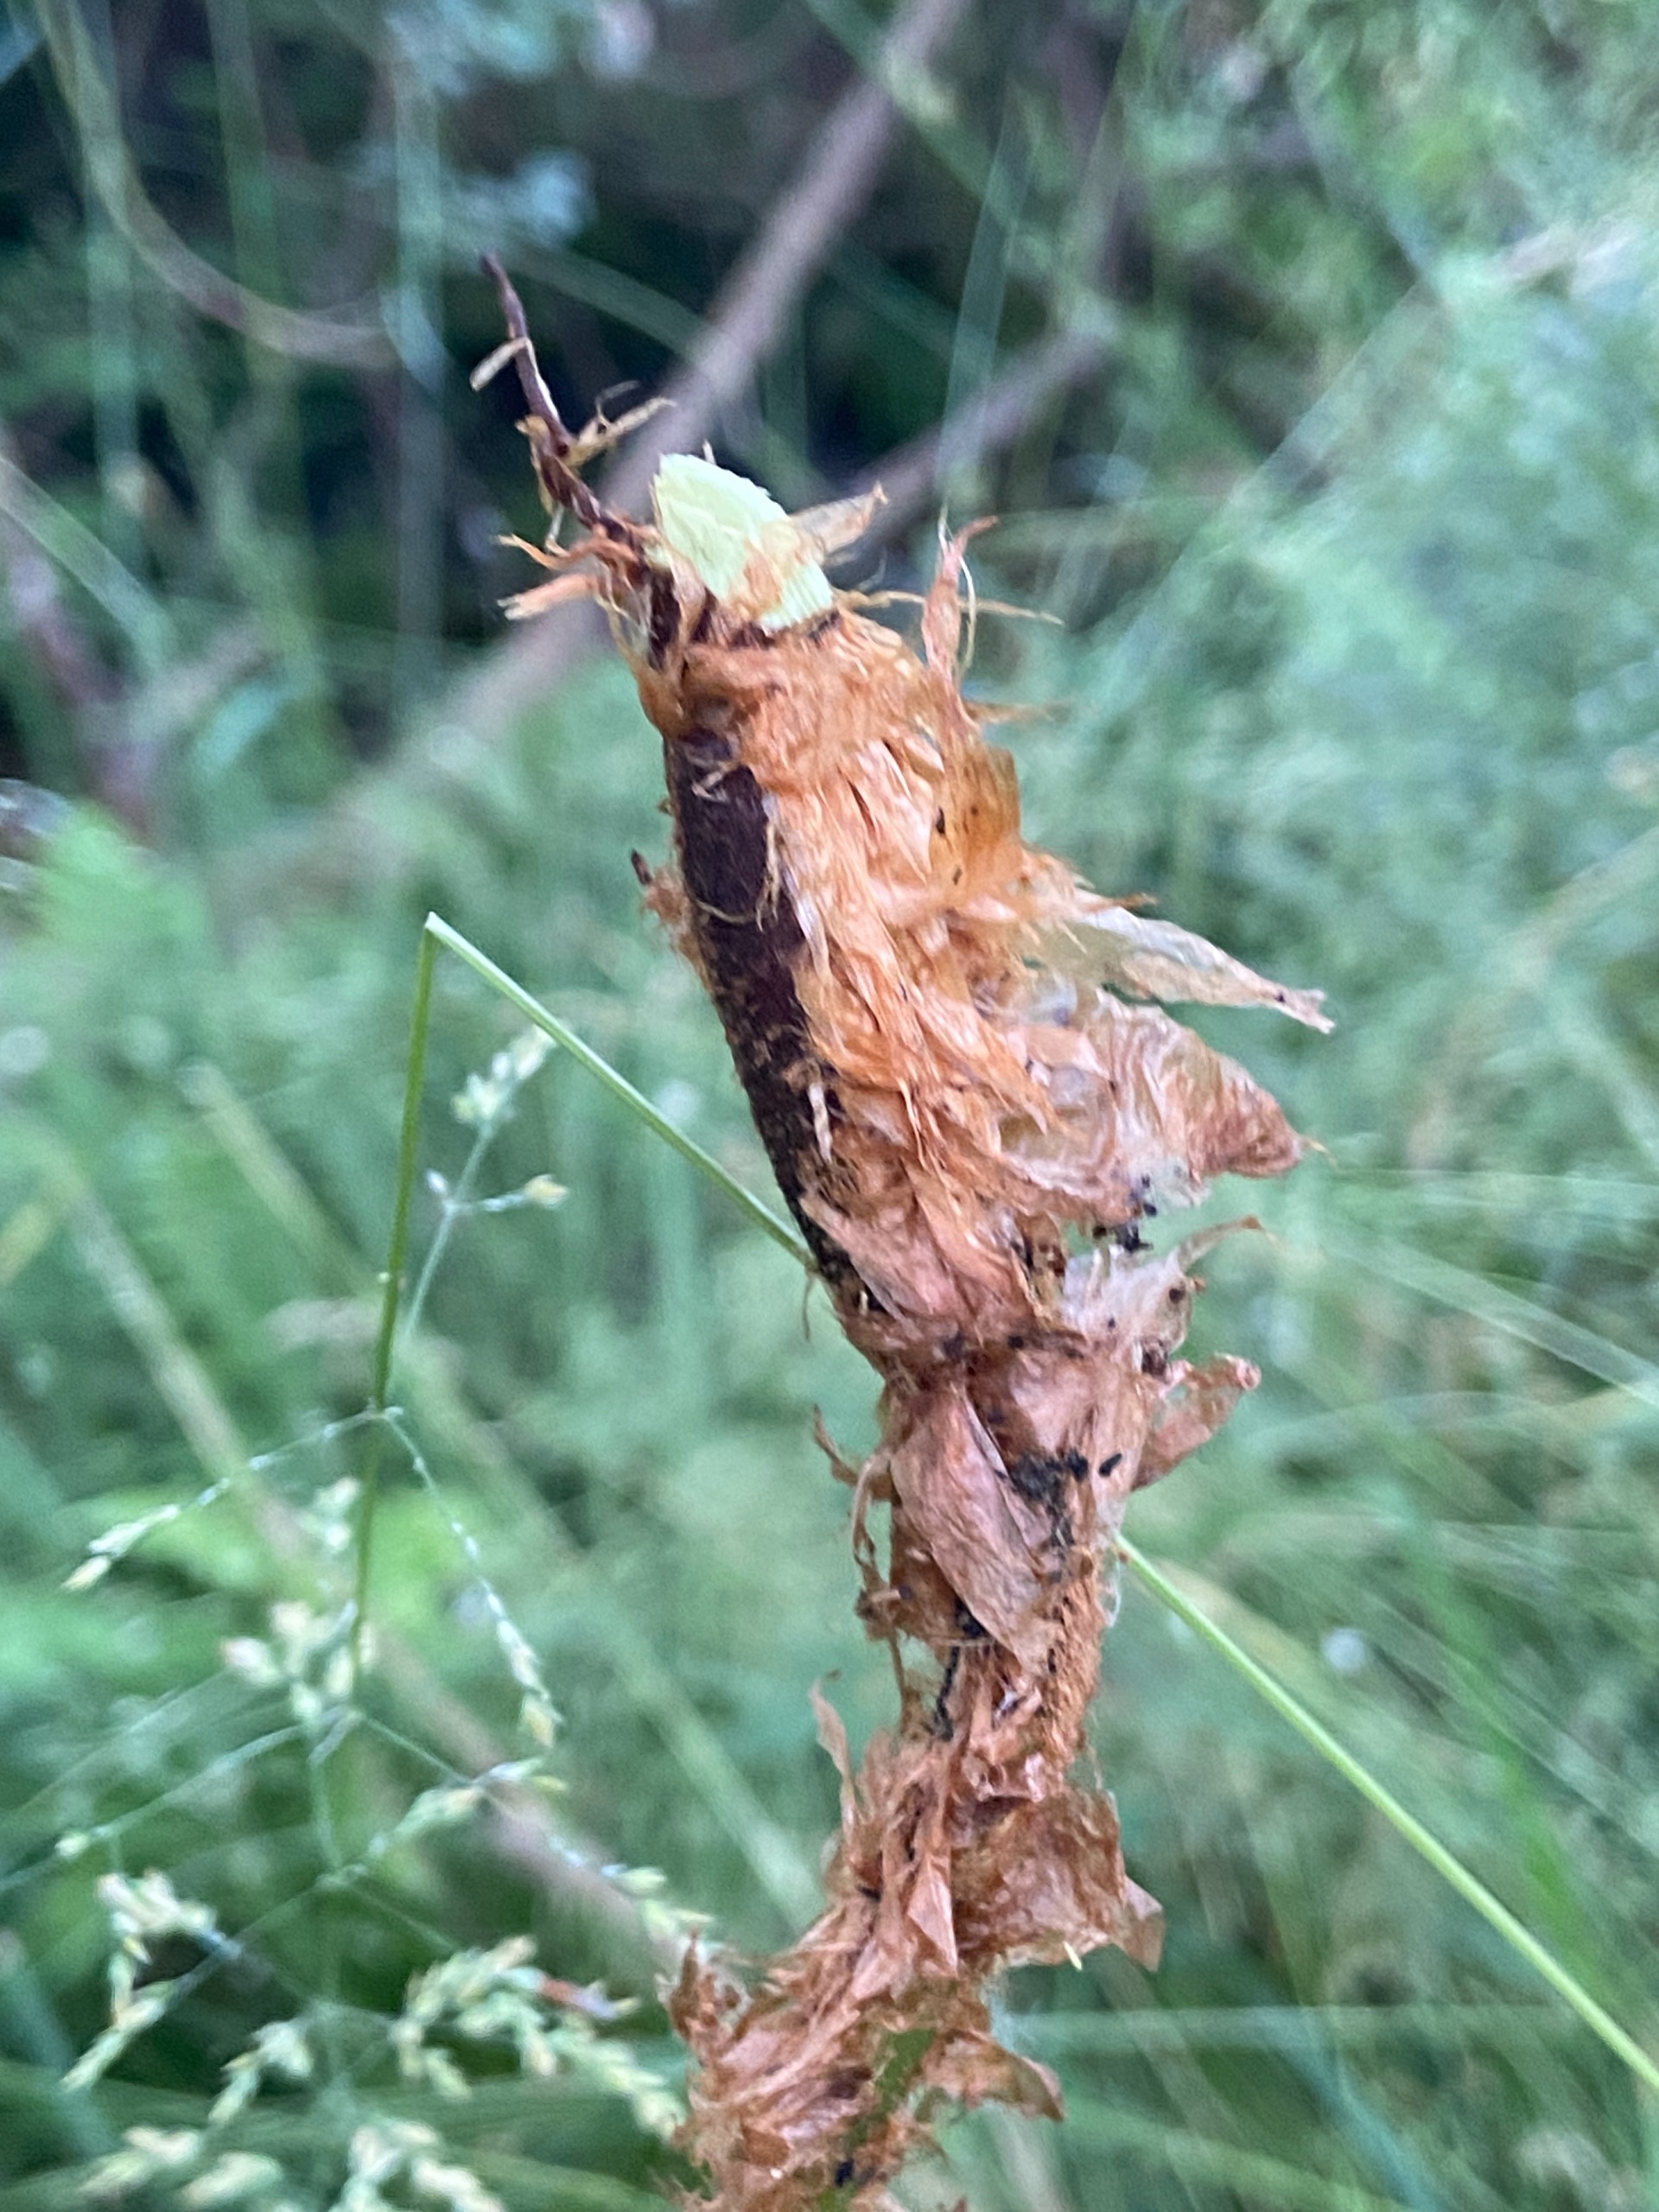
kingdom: Plantae
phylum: Tracheophyta
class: Polypodiopsida
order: Polypodiales
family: Dryopteridaceae
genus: Dryopteris
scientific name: Dryopteris filix-mas
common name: Almindelig mangeløv
